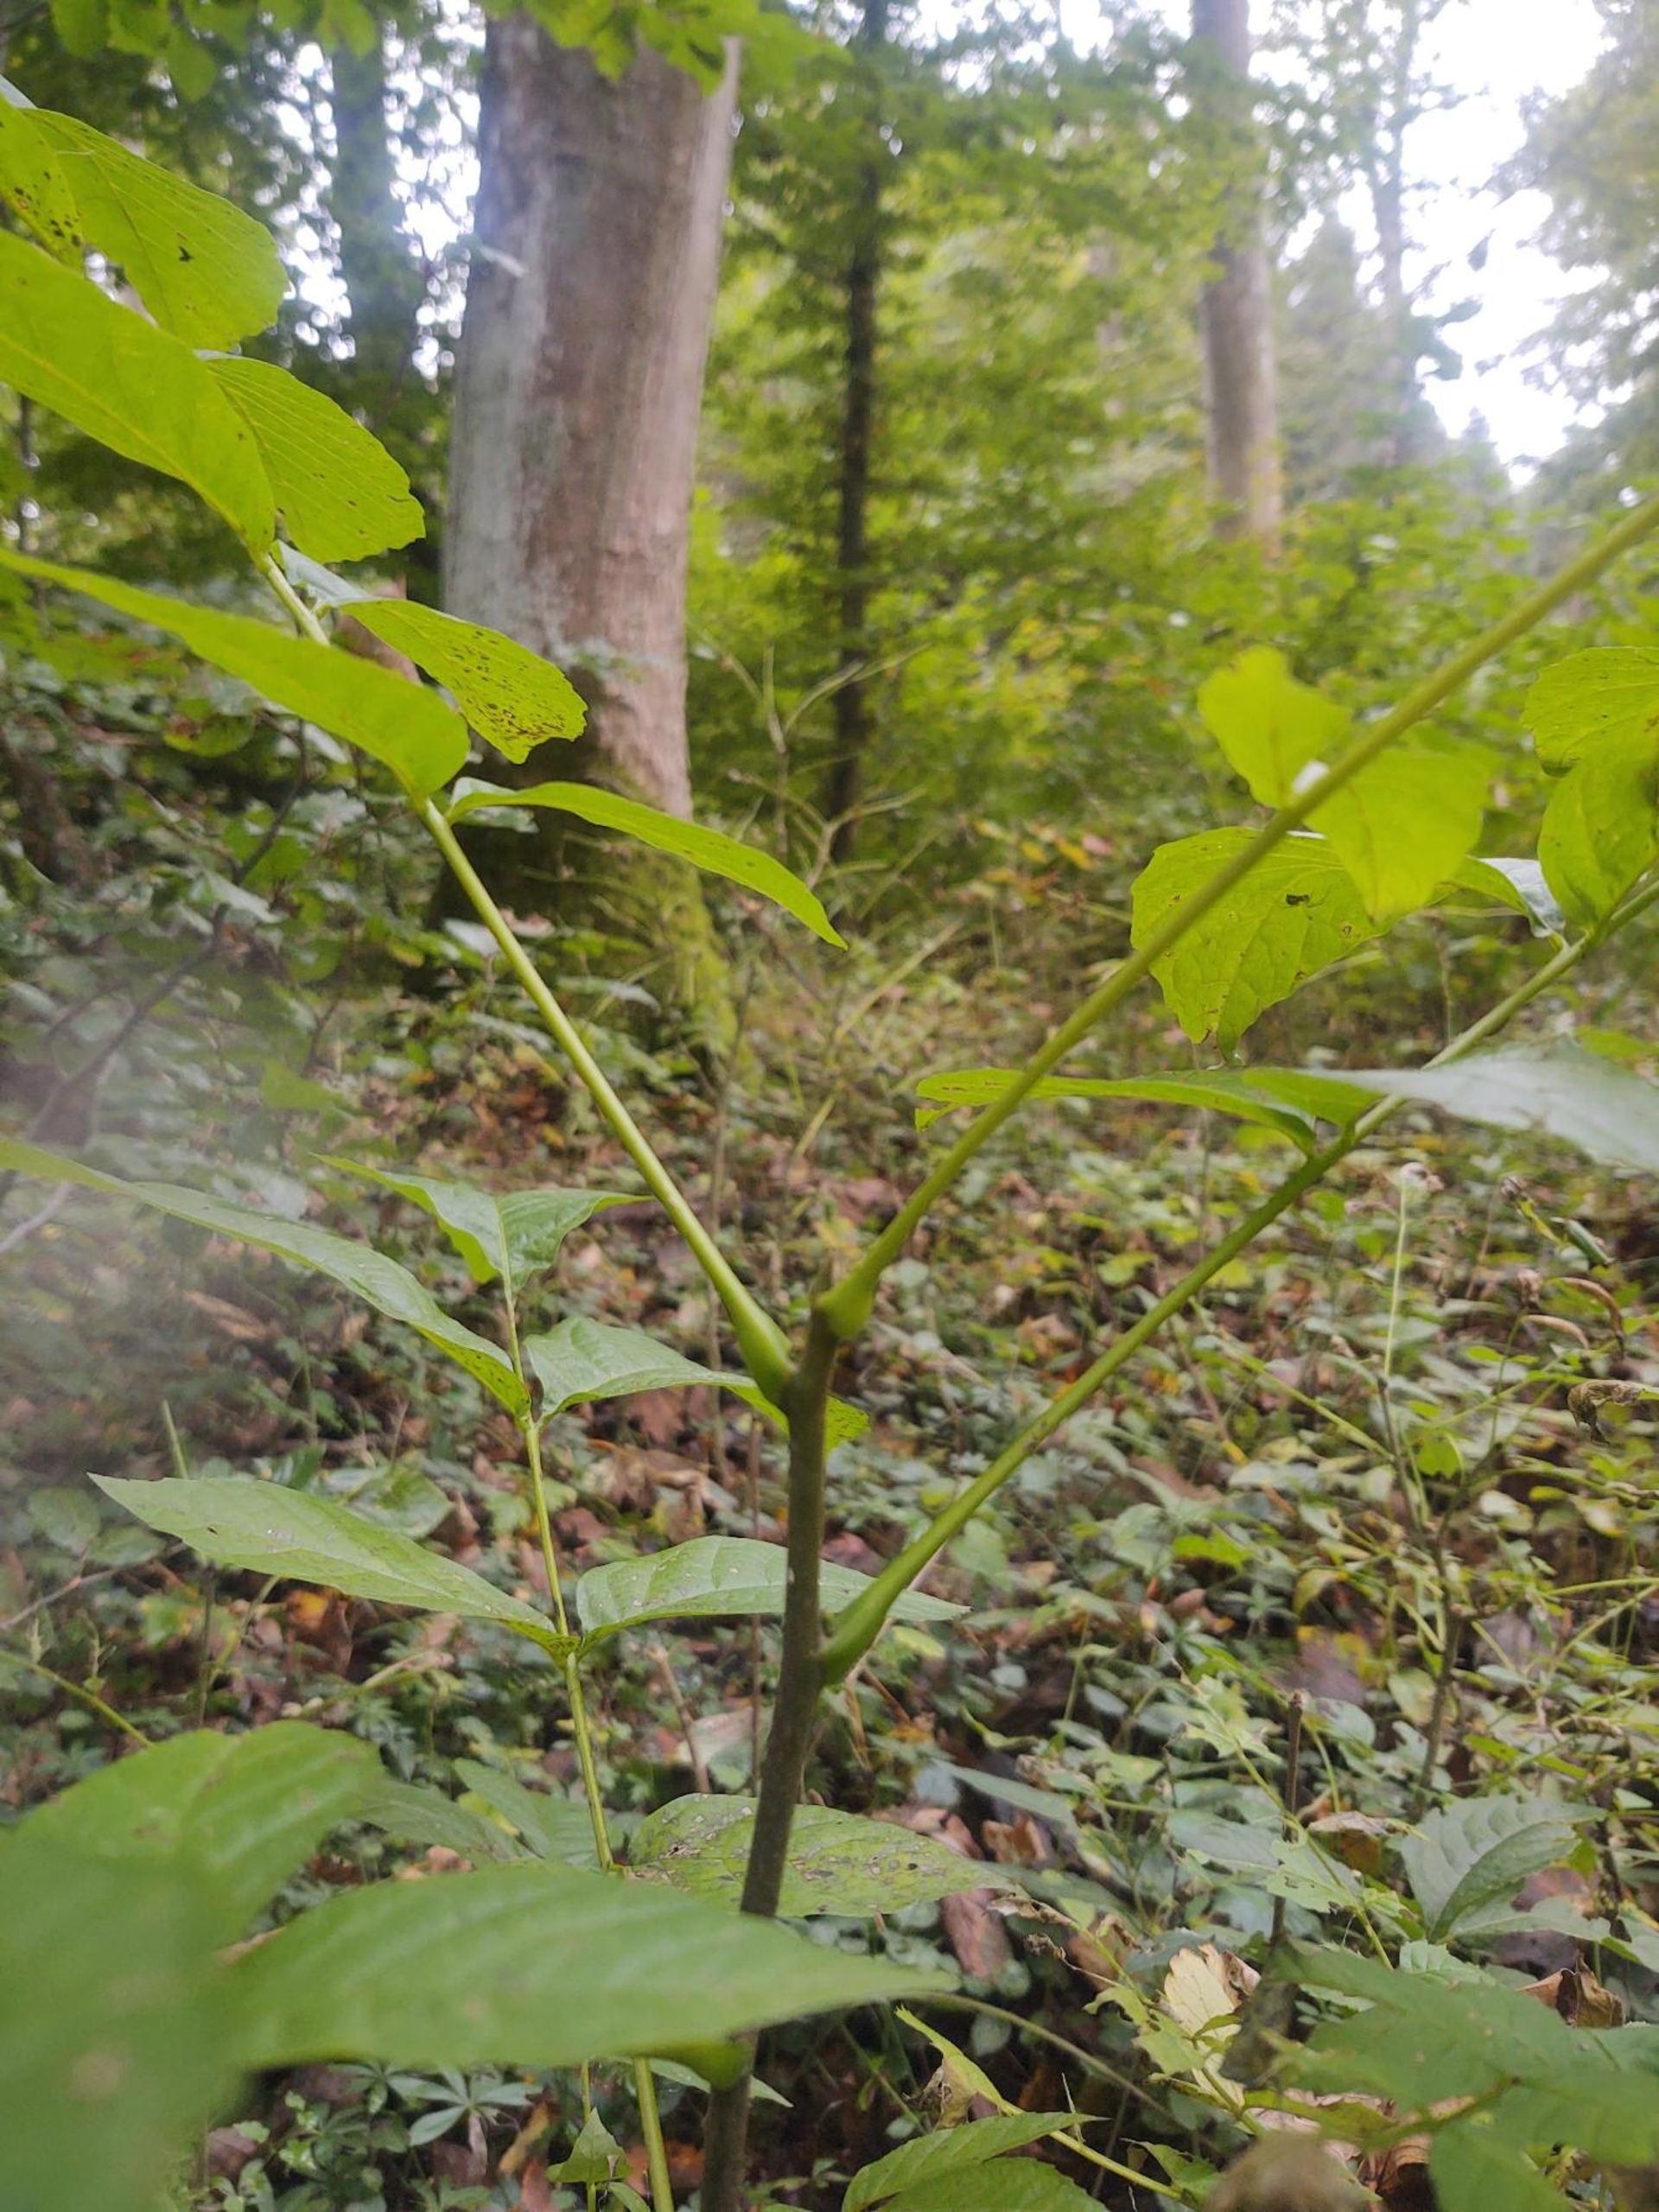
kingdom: Plantae
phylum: Tracheophyta
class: Magnoliopsida
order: Fagales
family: Juglandaceae
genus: Juglans
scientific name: Juglans regia
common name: Almindelig valnød
